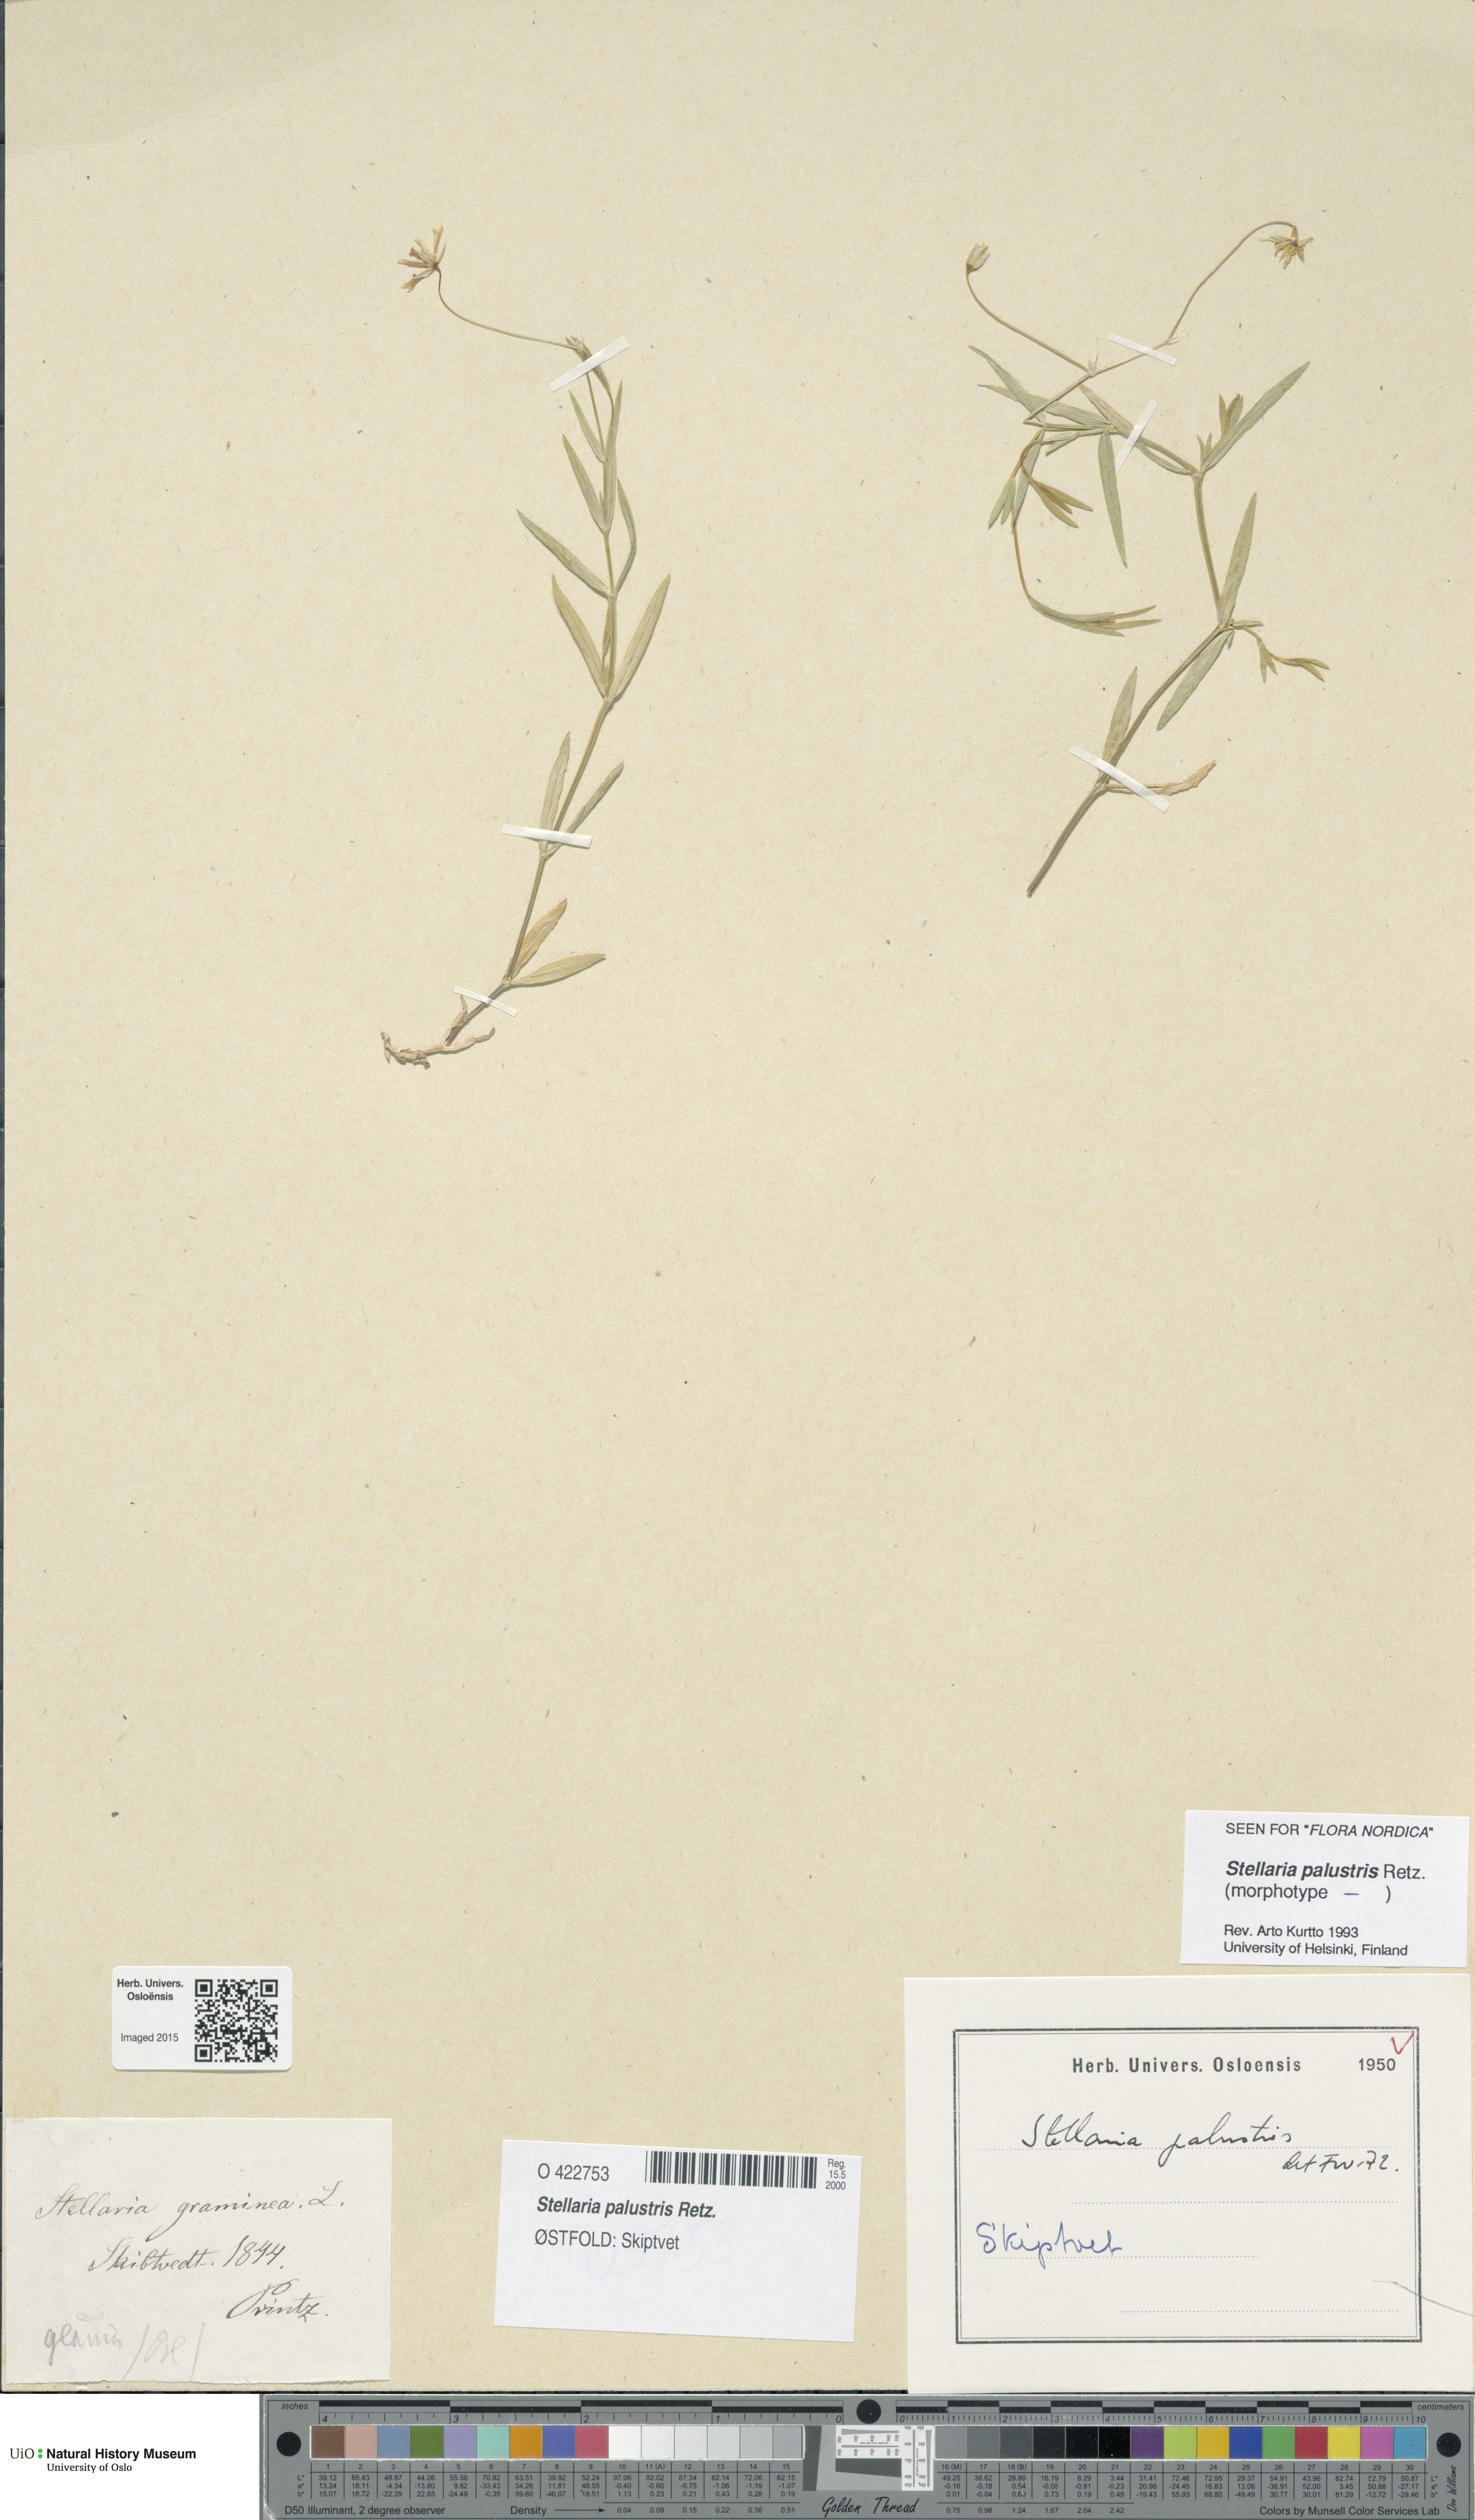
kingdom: Plantae
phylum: Tracheophyta
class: Magnoliopsida
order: Caryophyllales
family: Caryophyllaceae
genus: Stellaria
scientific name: Stellaria palustris
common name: Marsh stitchwort
